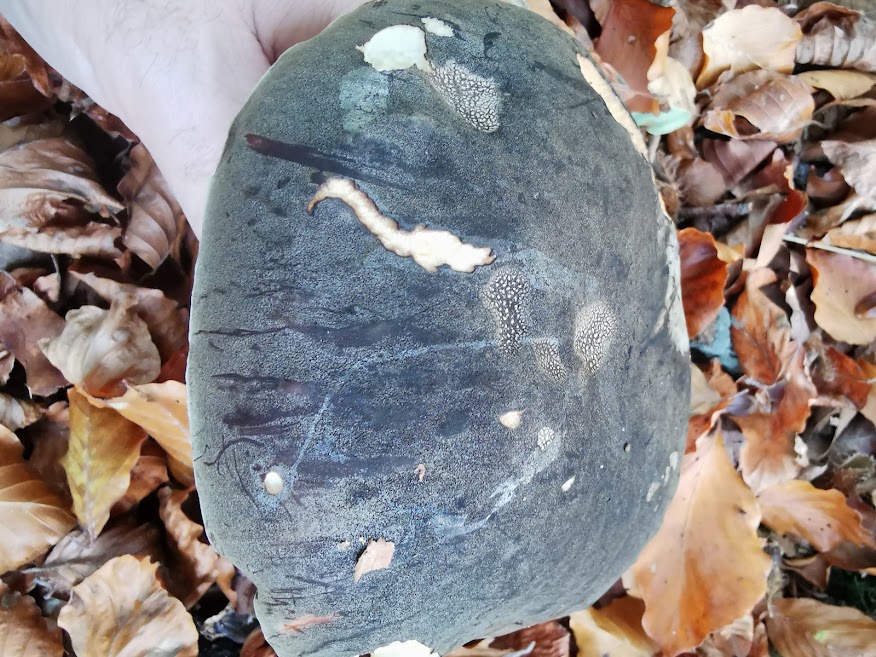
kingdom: Fungi
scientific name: Fungi
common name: bronze-rørhat
